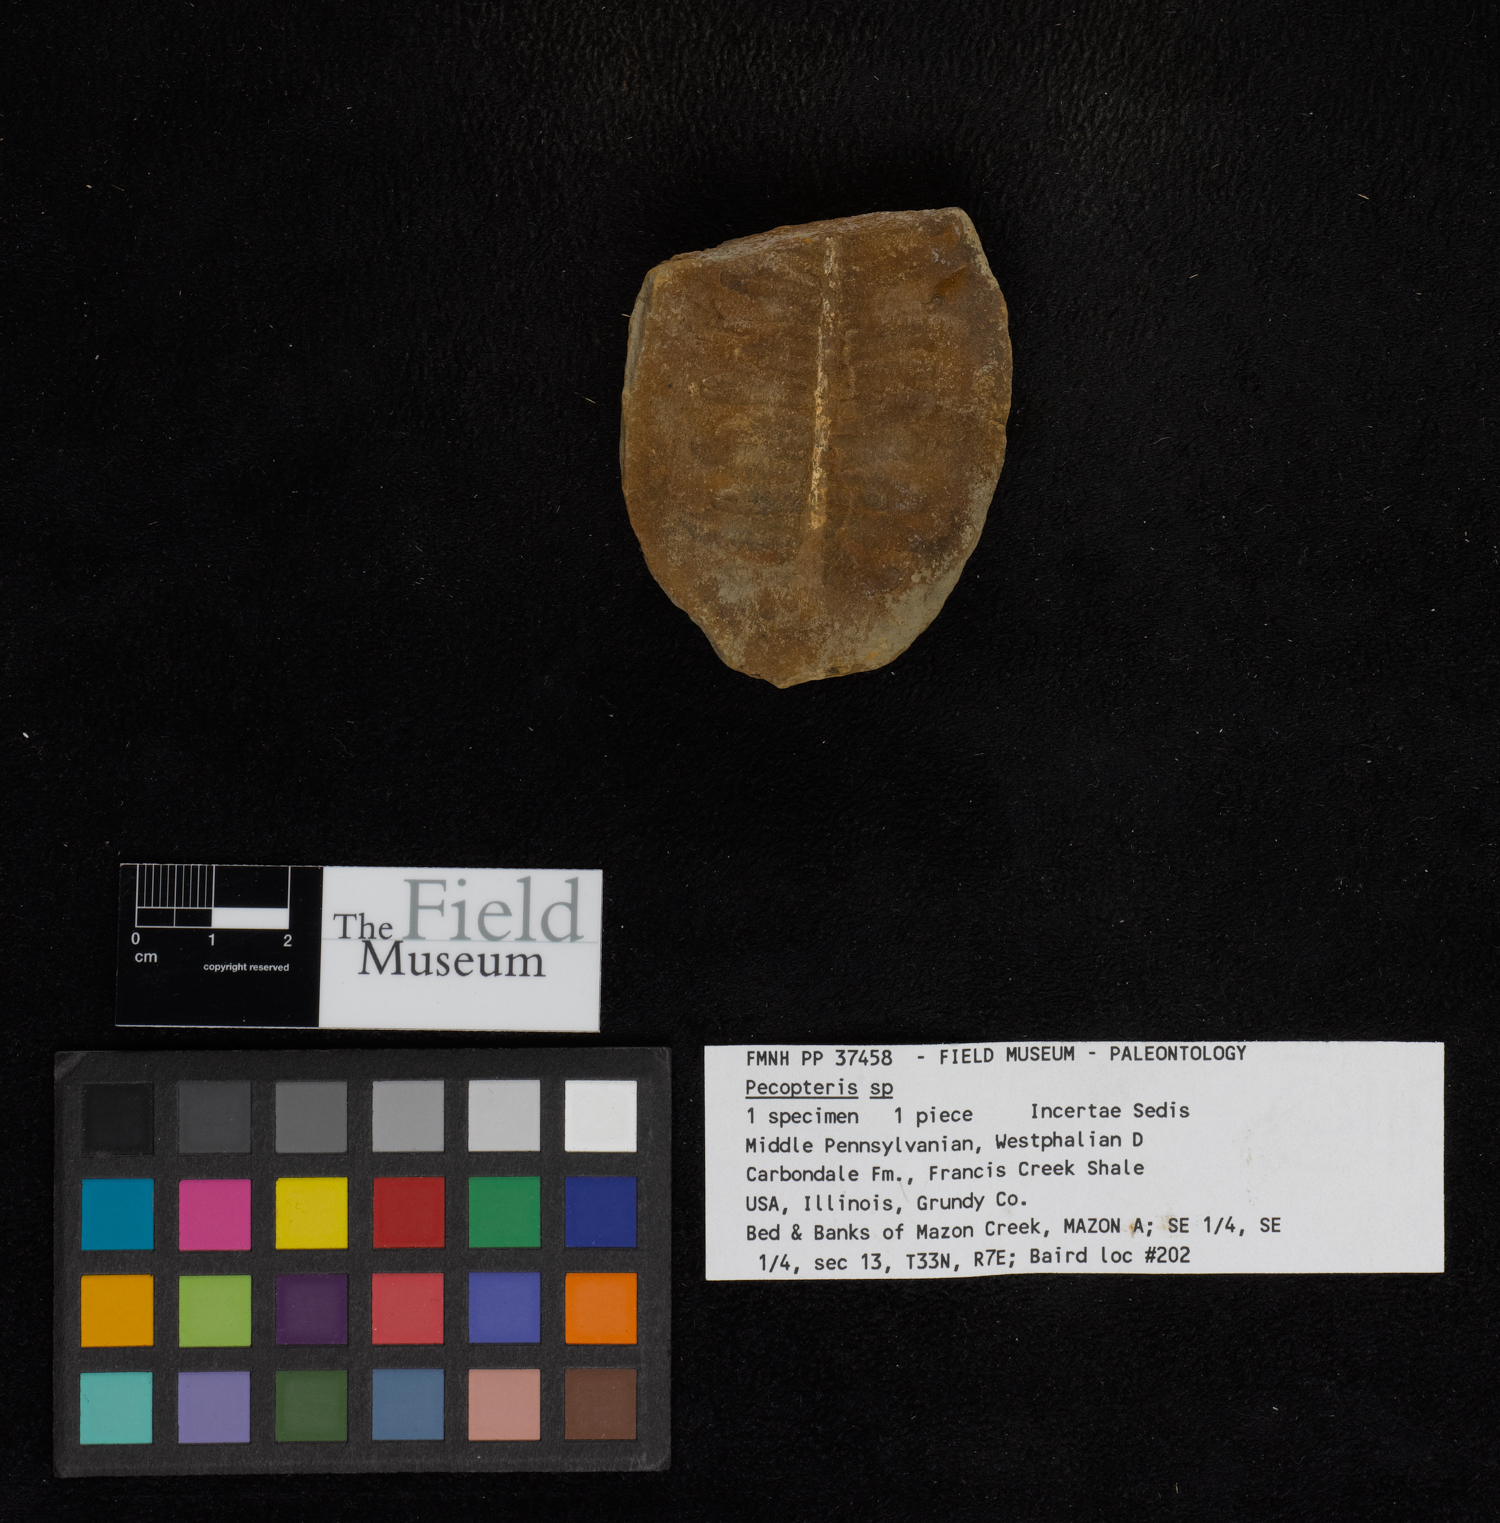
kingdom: Plantae
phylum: Tracheophyta
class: Polypodiopsida
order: Marattiales
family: Asterothecaceae
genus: Pecopteris
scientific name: Pecopteris
